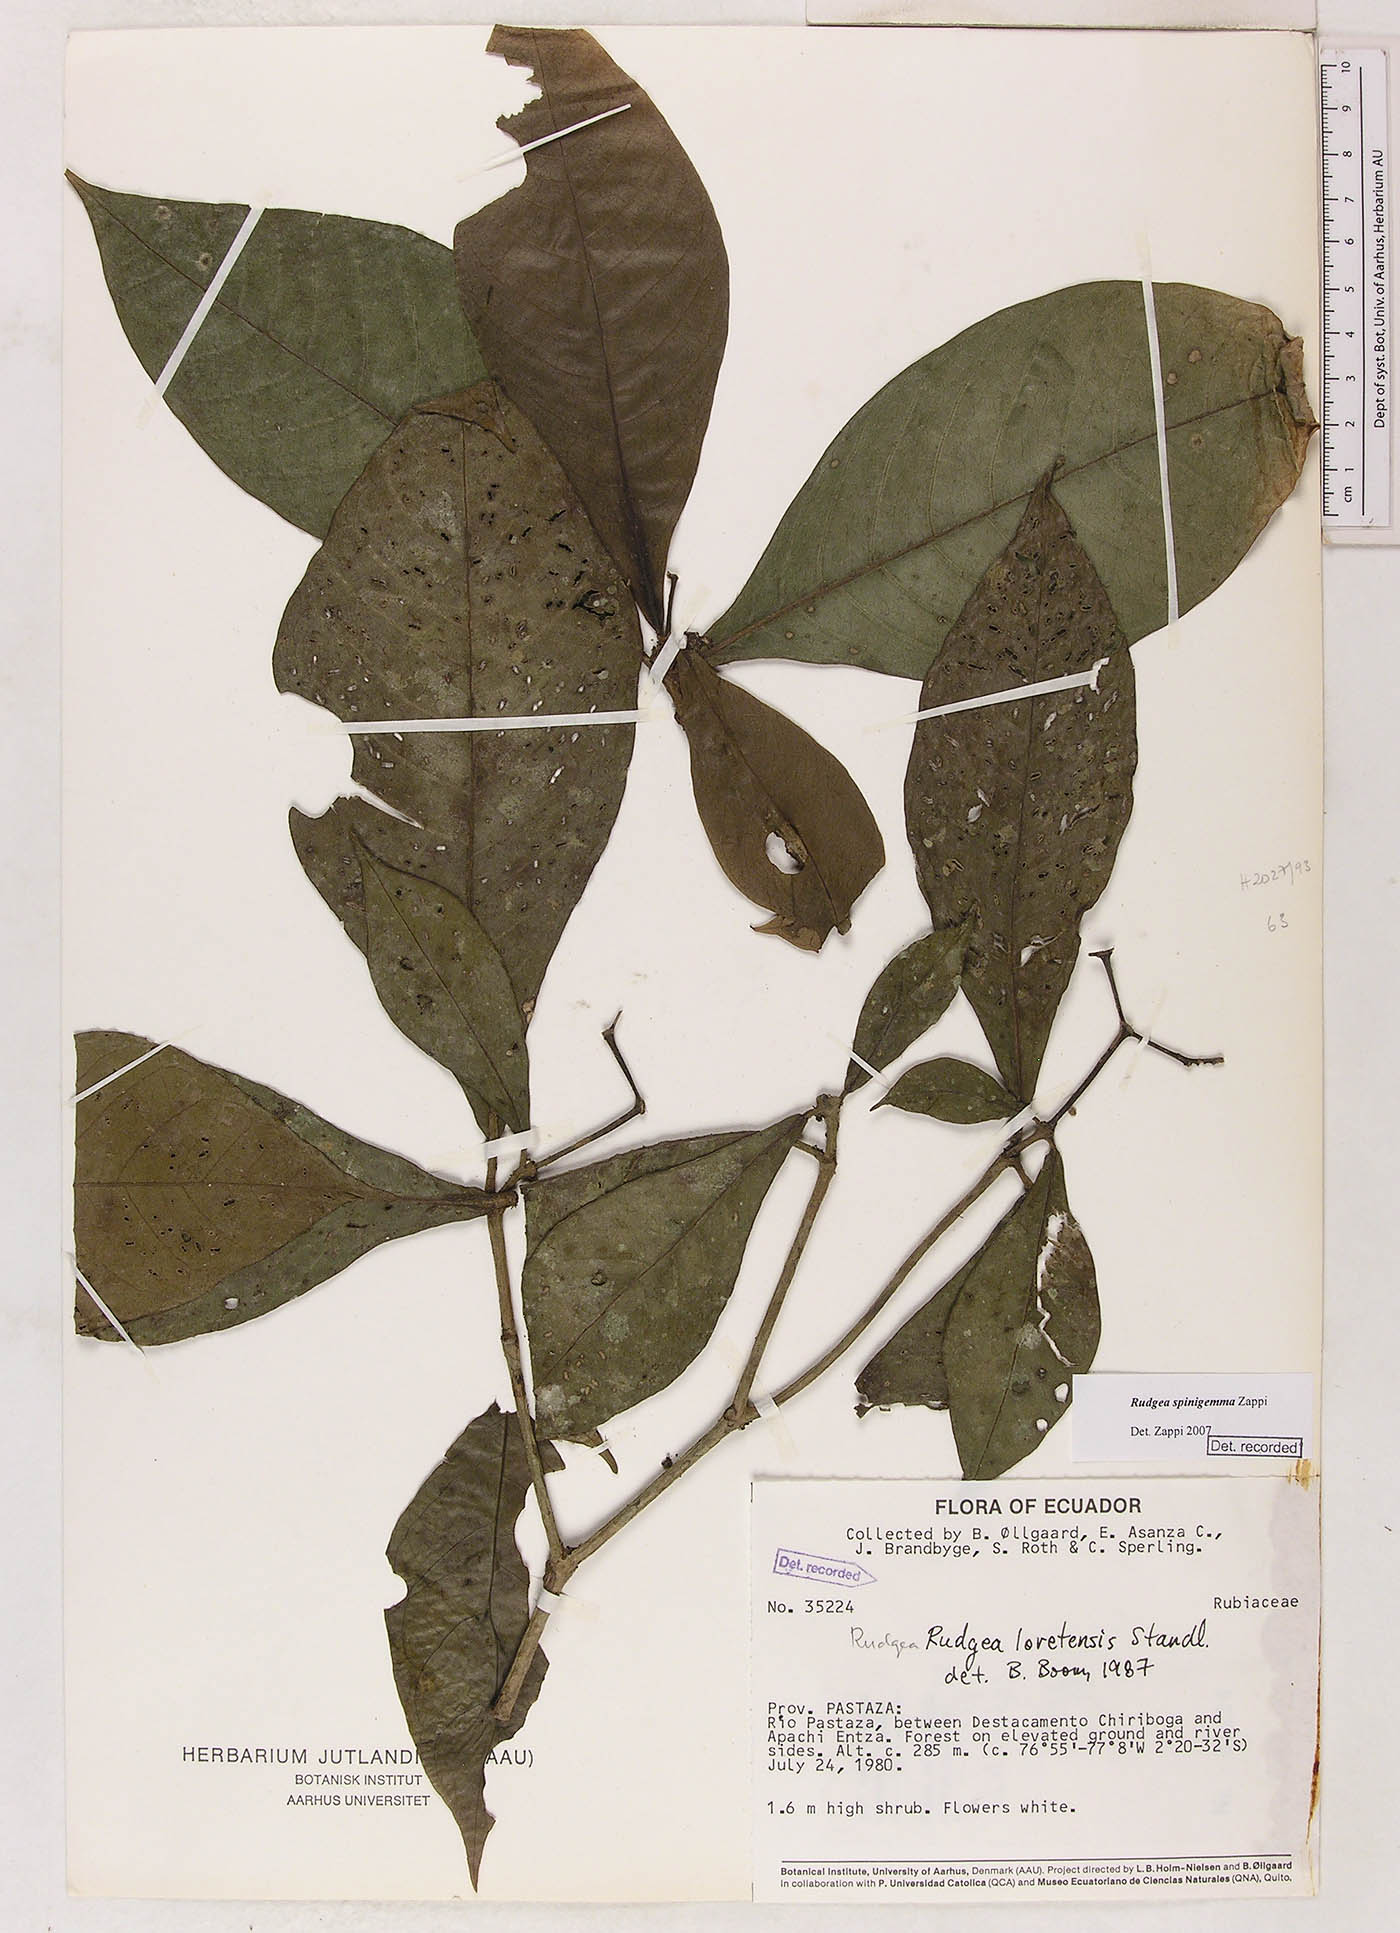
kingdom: Plantae
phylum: Tracheophyta
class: Magnoliopsida
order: Gentianales
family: Rubiaceae
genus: Rudgea
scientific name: Rudgea spinigemma
